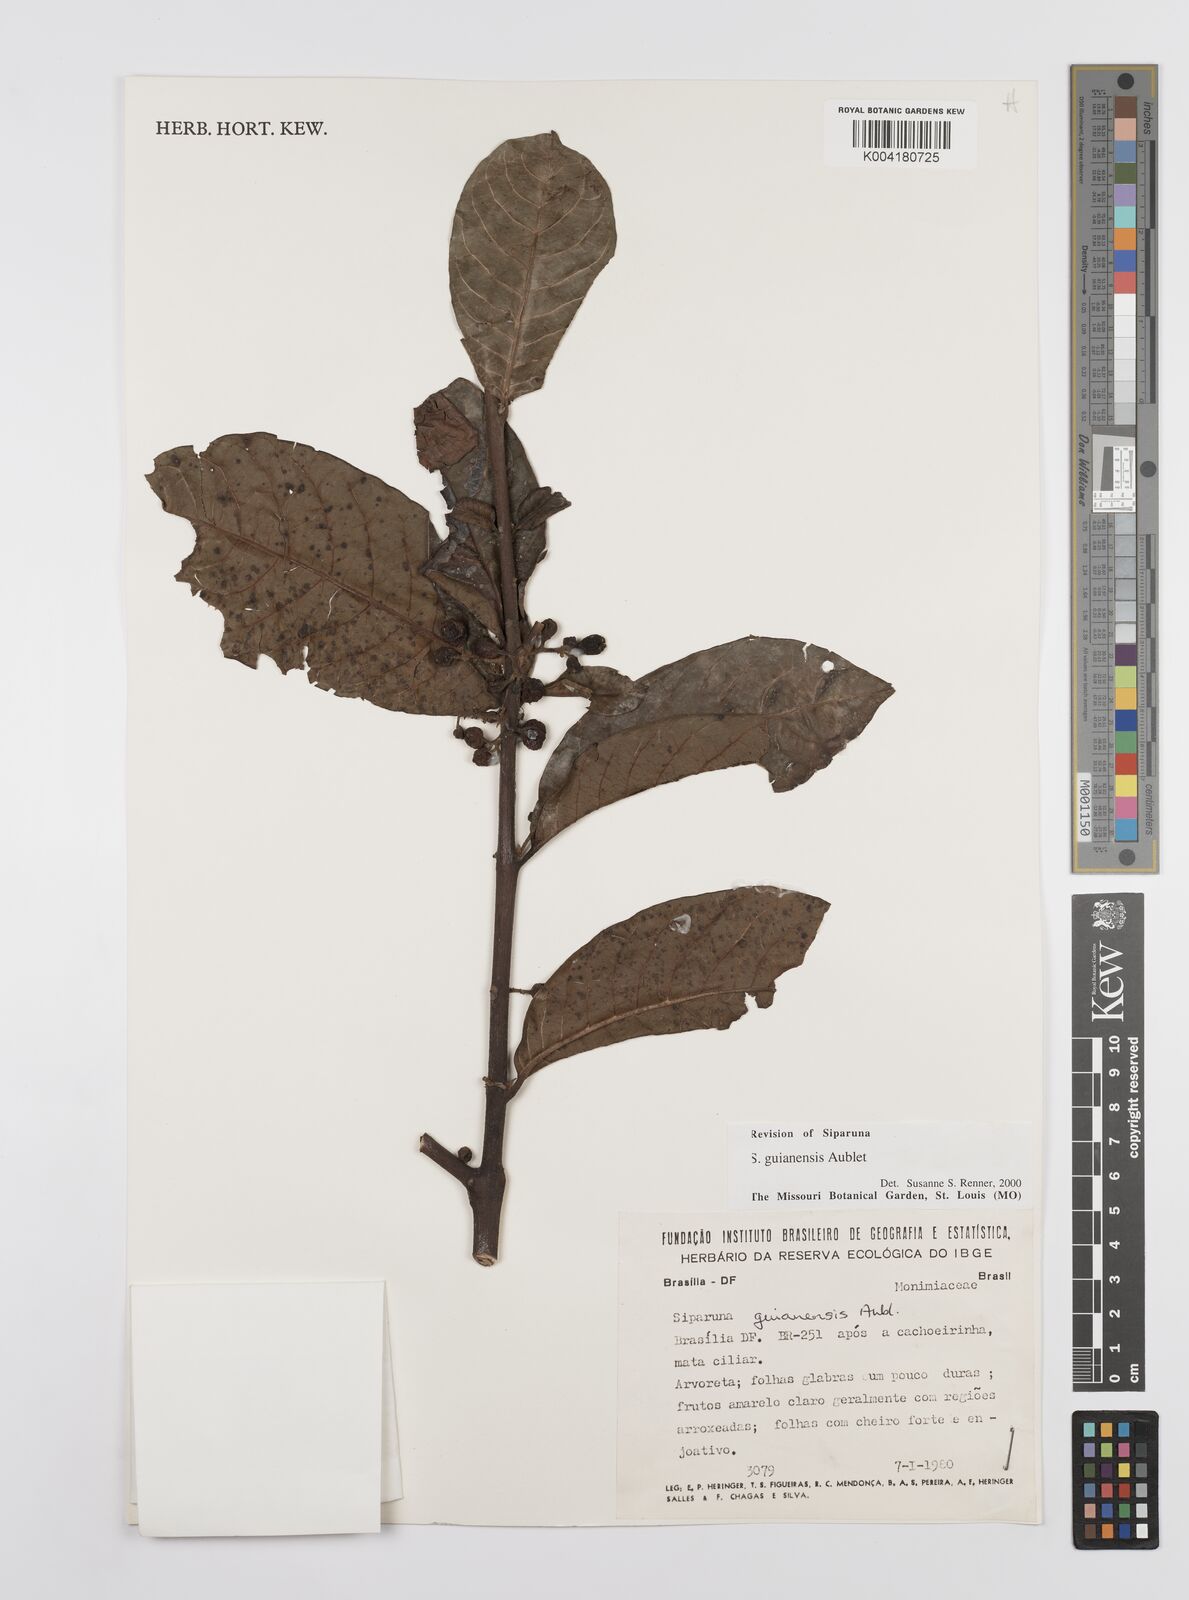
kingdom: Plantae
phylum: Tracheophyta
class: Magnoliopsida
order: Laurales
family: Siparunaceae
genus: Siparuna
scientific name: Siparuna guianensis
